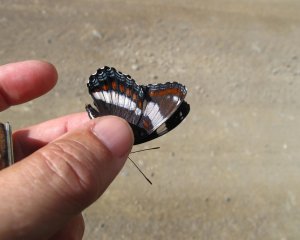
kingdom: Animalia
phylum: Arthropoda
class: Insecta
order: Lepidoptera
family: Nymphalidae
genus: Limenitis
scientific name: Limenitis arthemis
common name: Red-spotted Admiral
